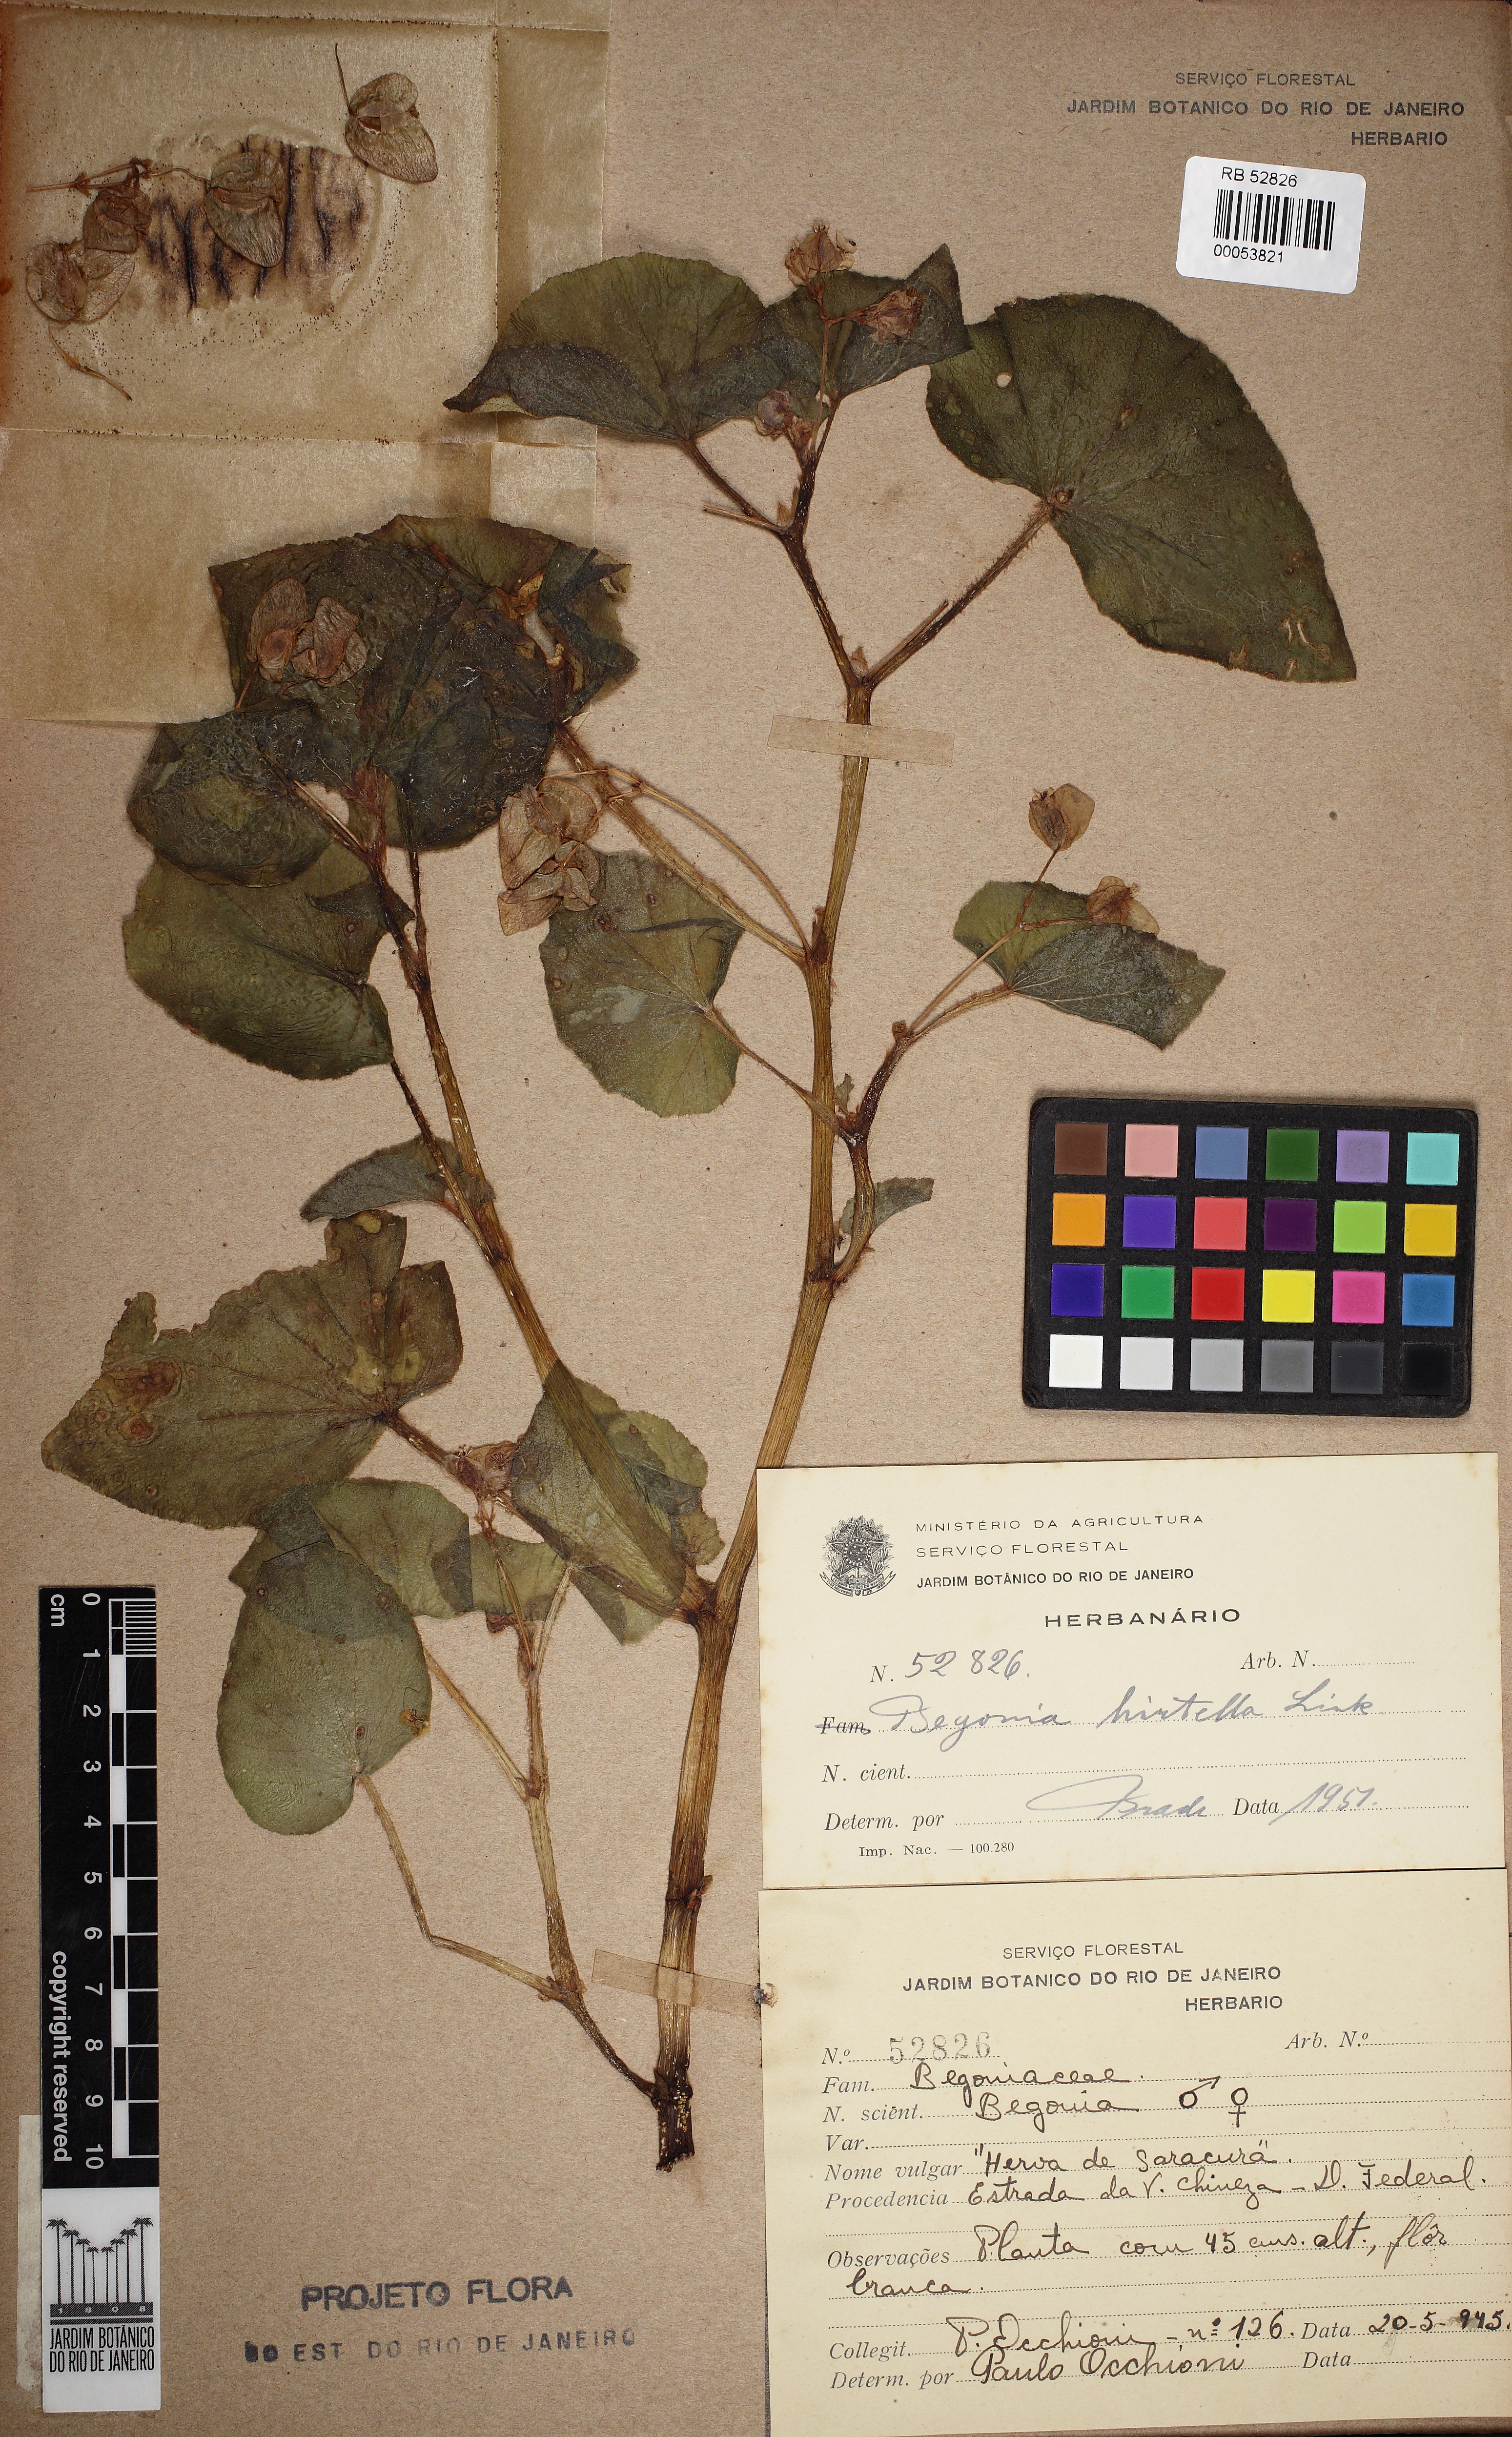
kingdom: Plantae
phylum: Tracheophyta
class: Magnoliopsida
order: Cucurbitales
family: Begoniaceae
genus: Begonia
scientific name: Begonia hirtella
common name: Brazilian begonia
